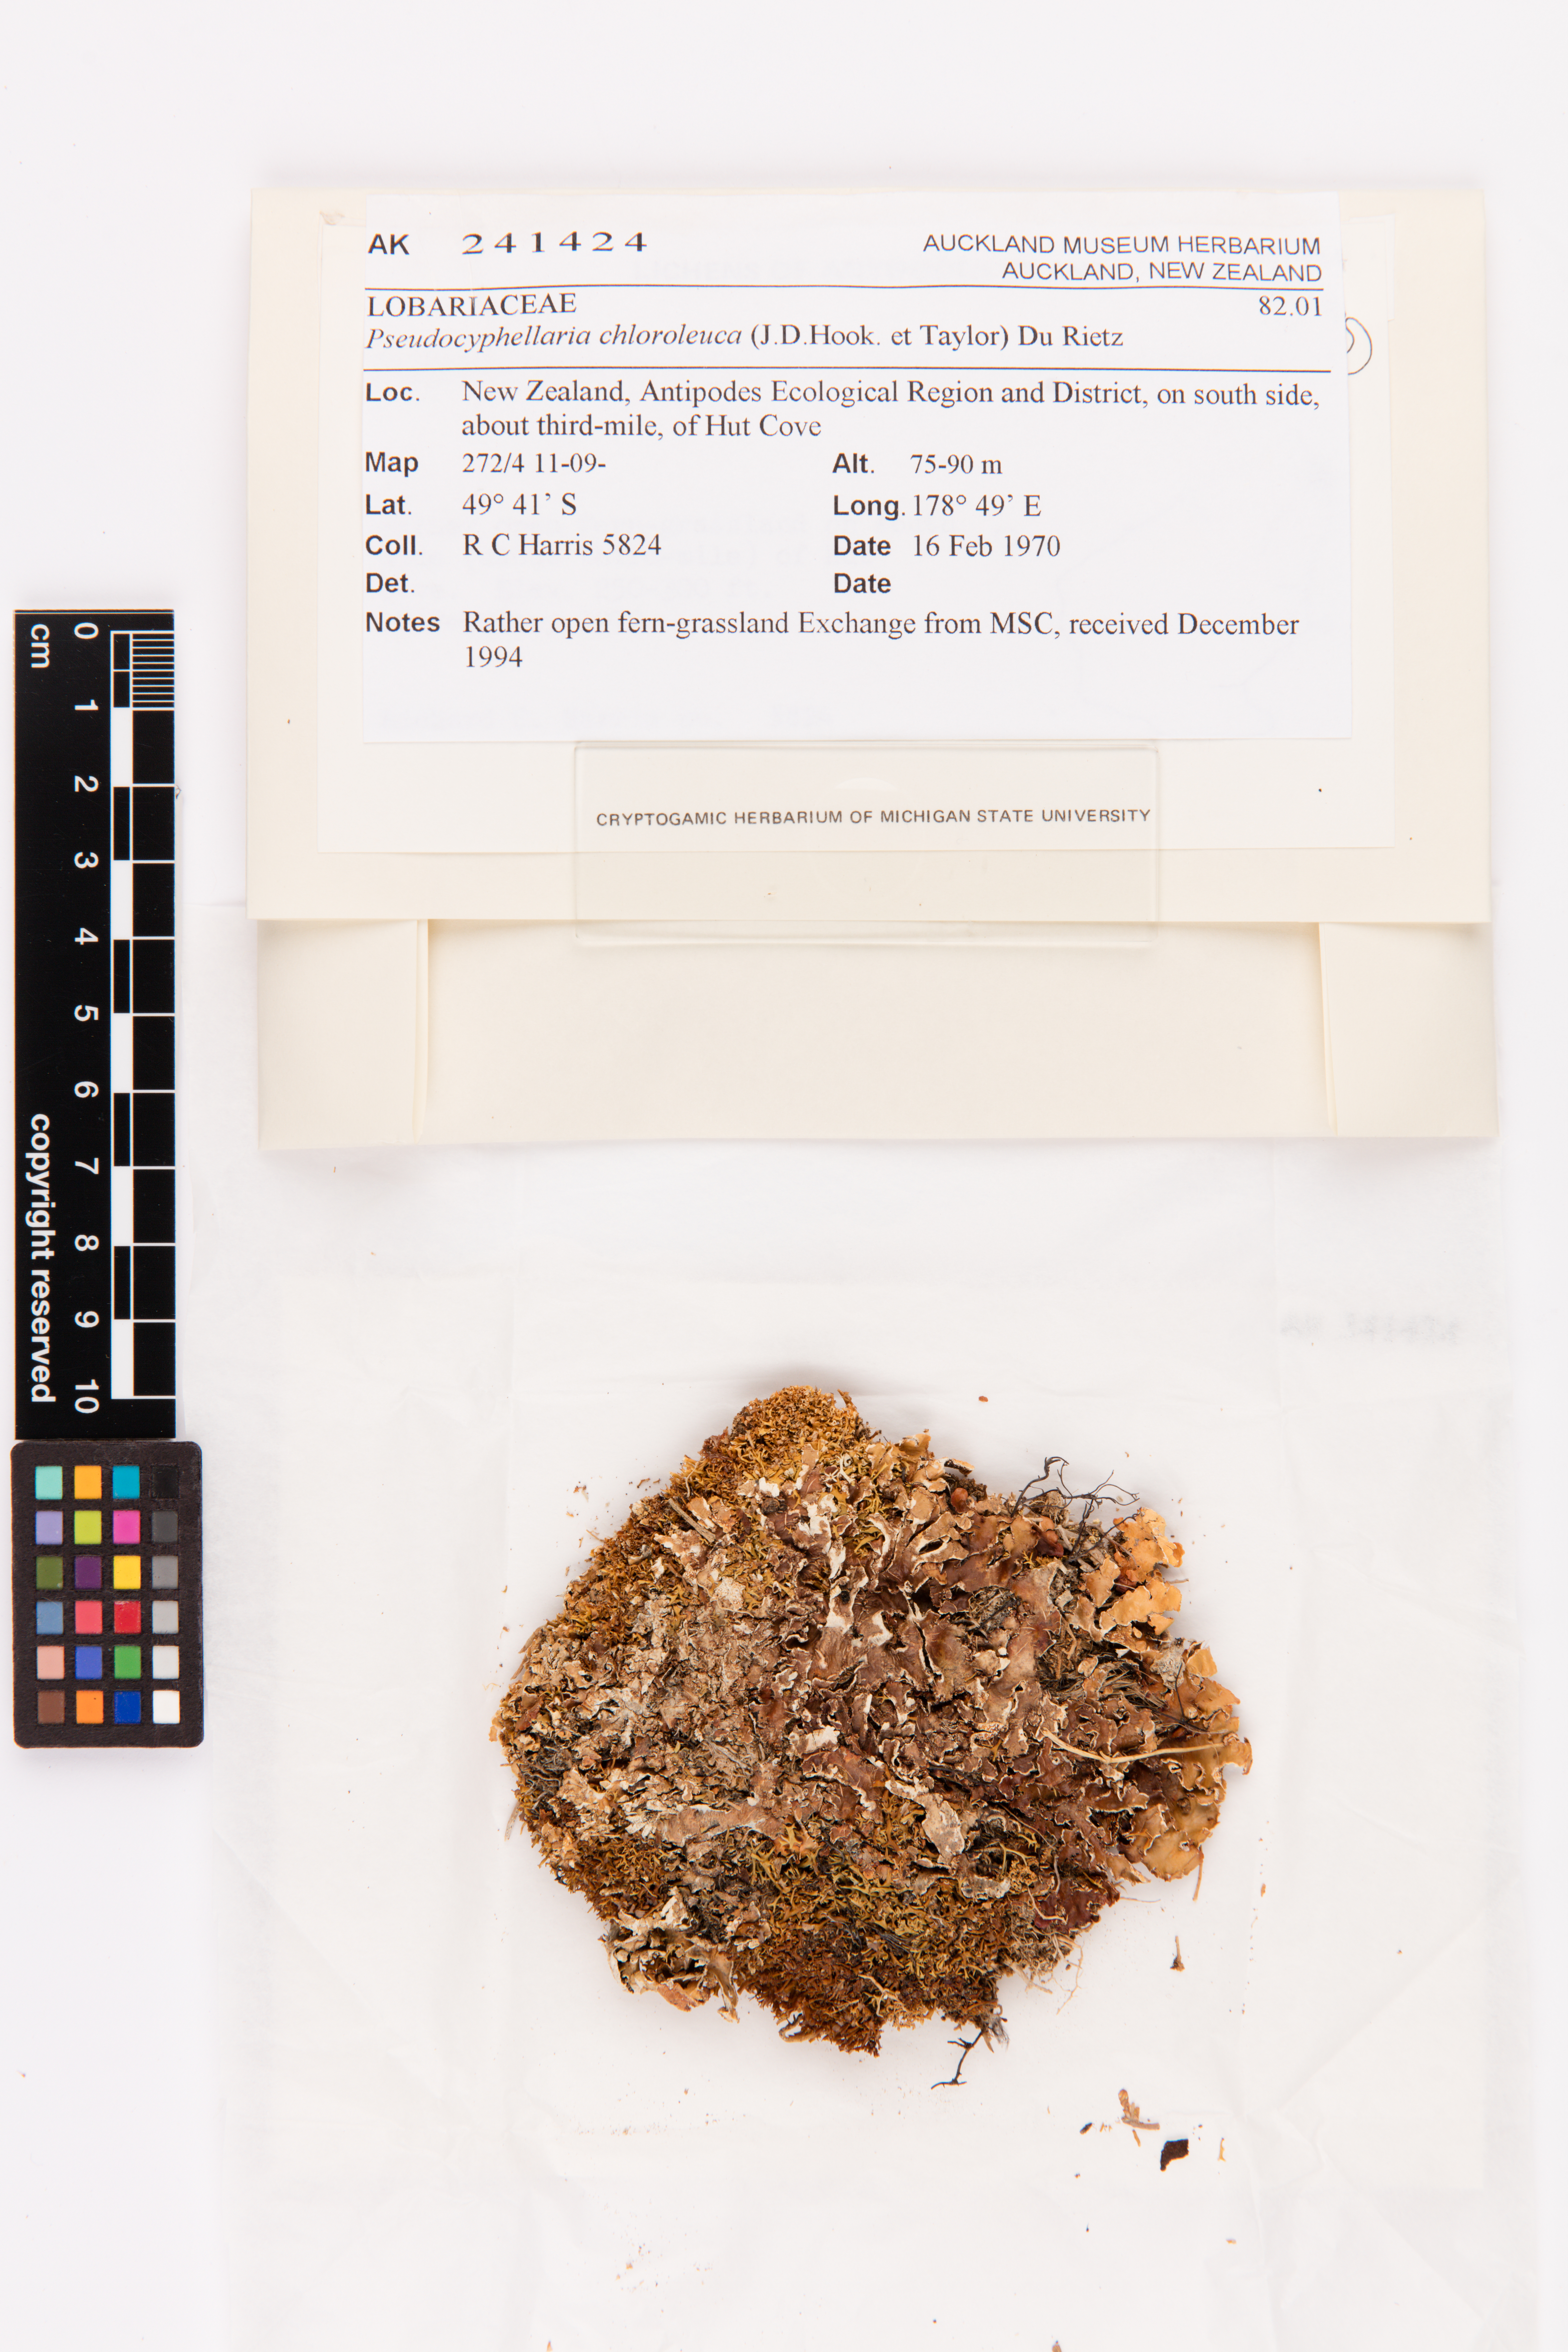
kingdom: Fungi
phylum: Ascomycota
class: Lecanoromycetes
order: Peltigerales
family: Lobariaceae
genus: Pseudocyphellaria
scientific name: Pseudocyphellaria chloroleuca
